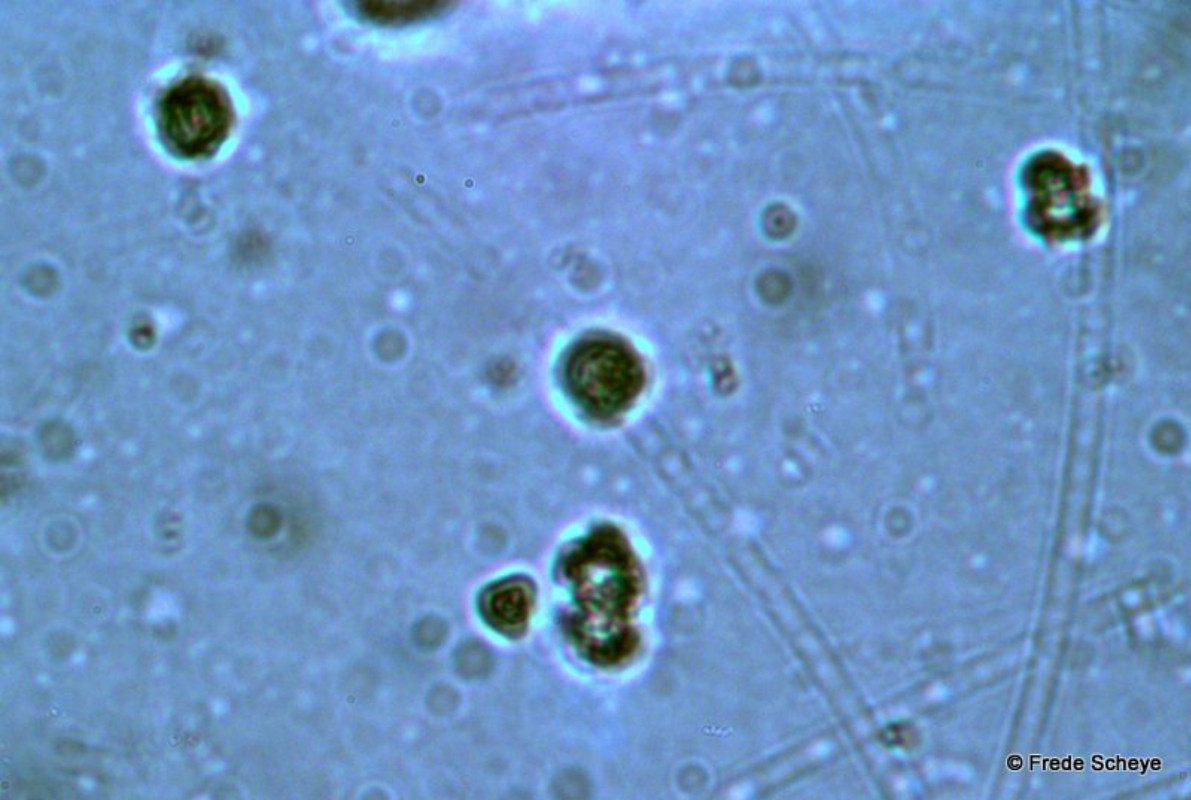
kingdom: Fungi
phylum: Basidiomycota
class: Agaricomycetes
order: Thelephorales
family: Bankeraceae
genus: Hydnellum
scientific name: Hydnellum concrescens
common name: bæltet korkpigsvamp
